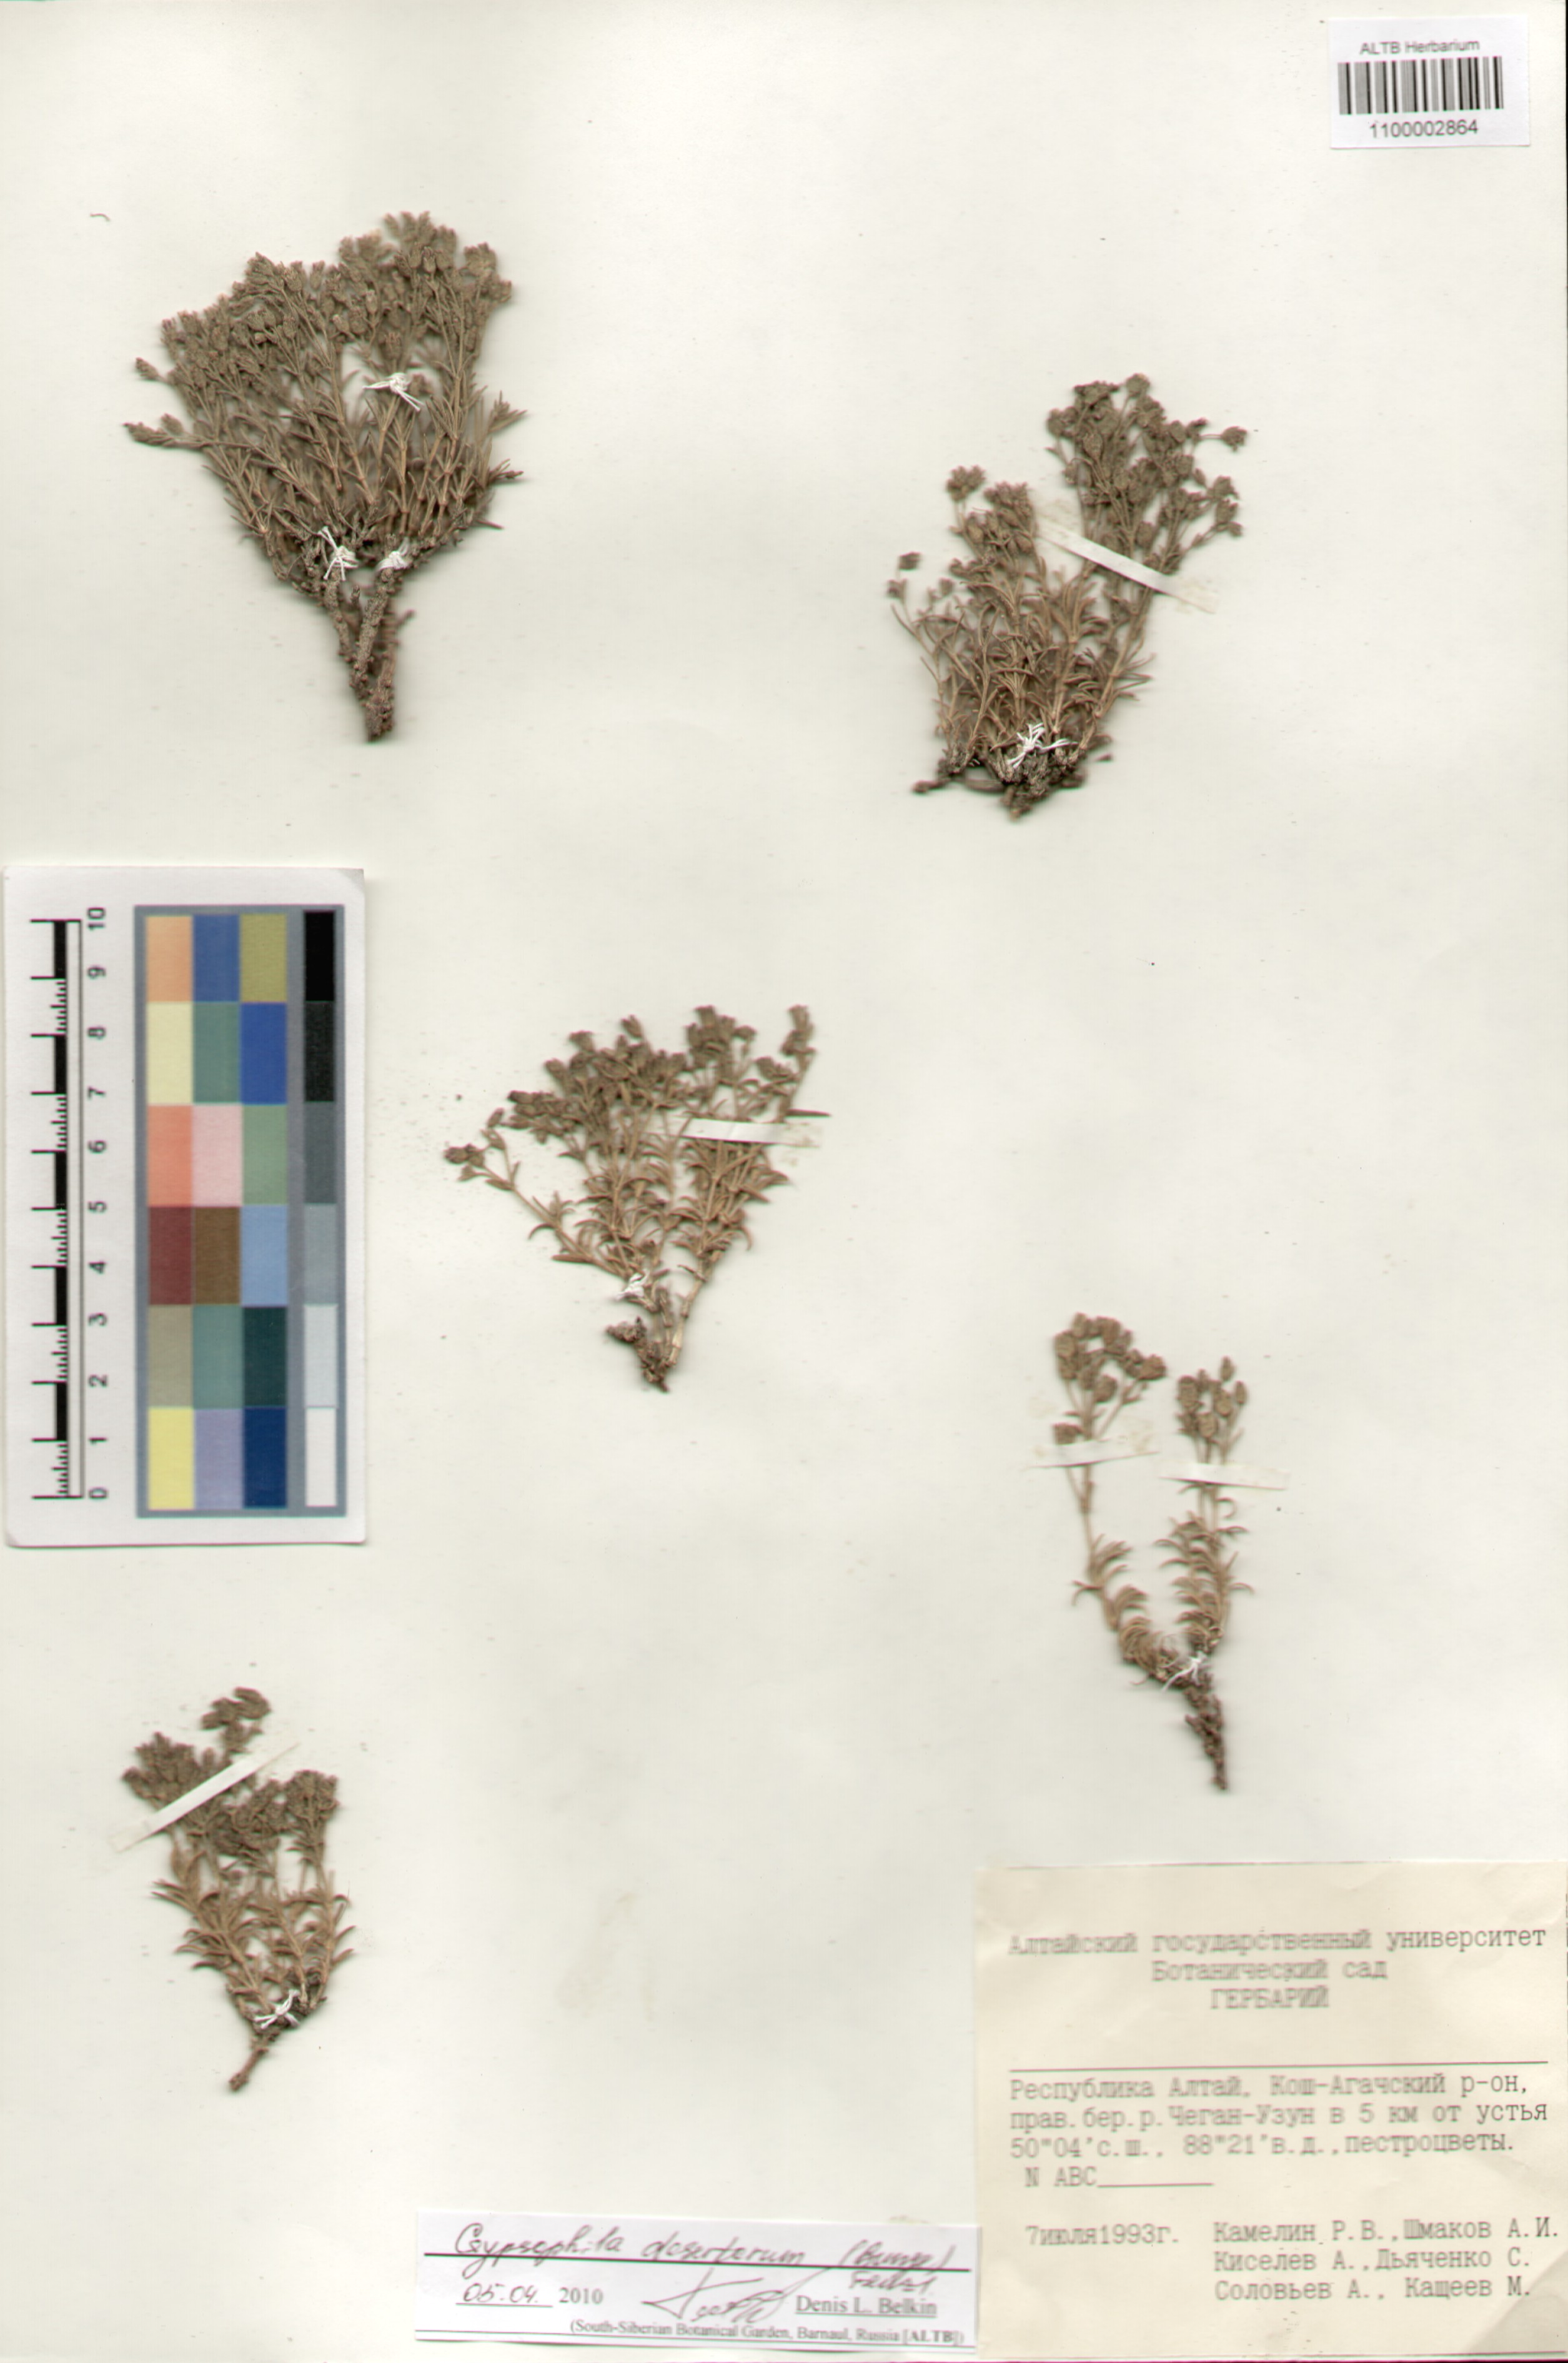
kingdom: Plantae
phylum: Tracheophyta
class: Magnoliopsida
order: Caryophyllales
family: Caryophyllaceae
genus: Heterochroa
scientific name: Heterochroa desertorum
